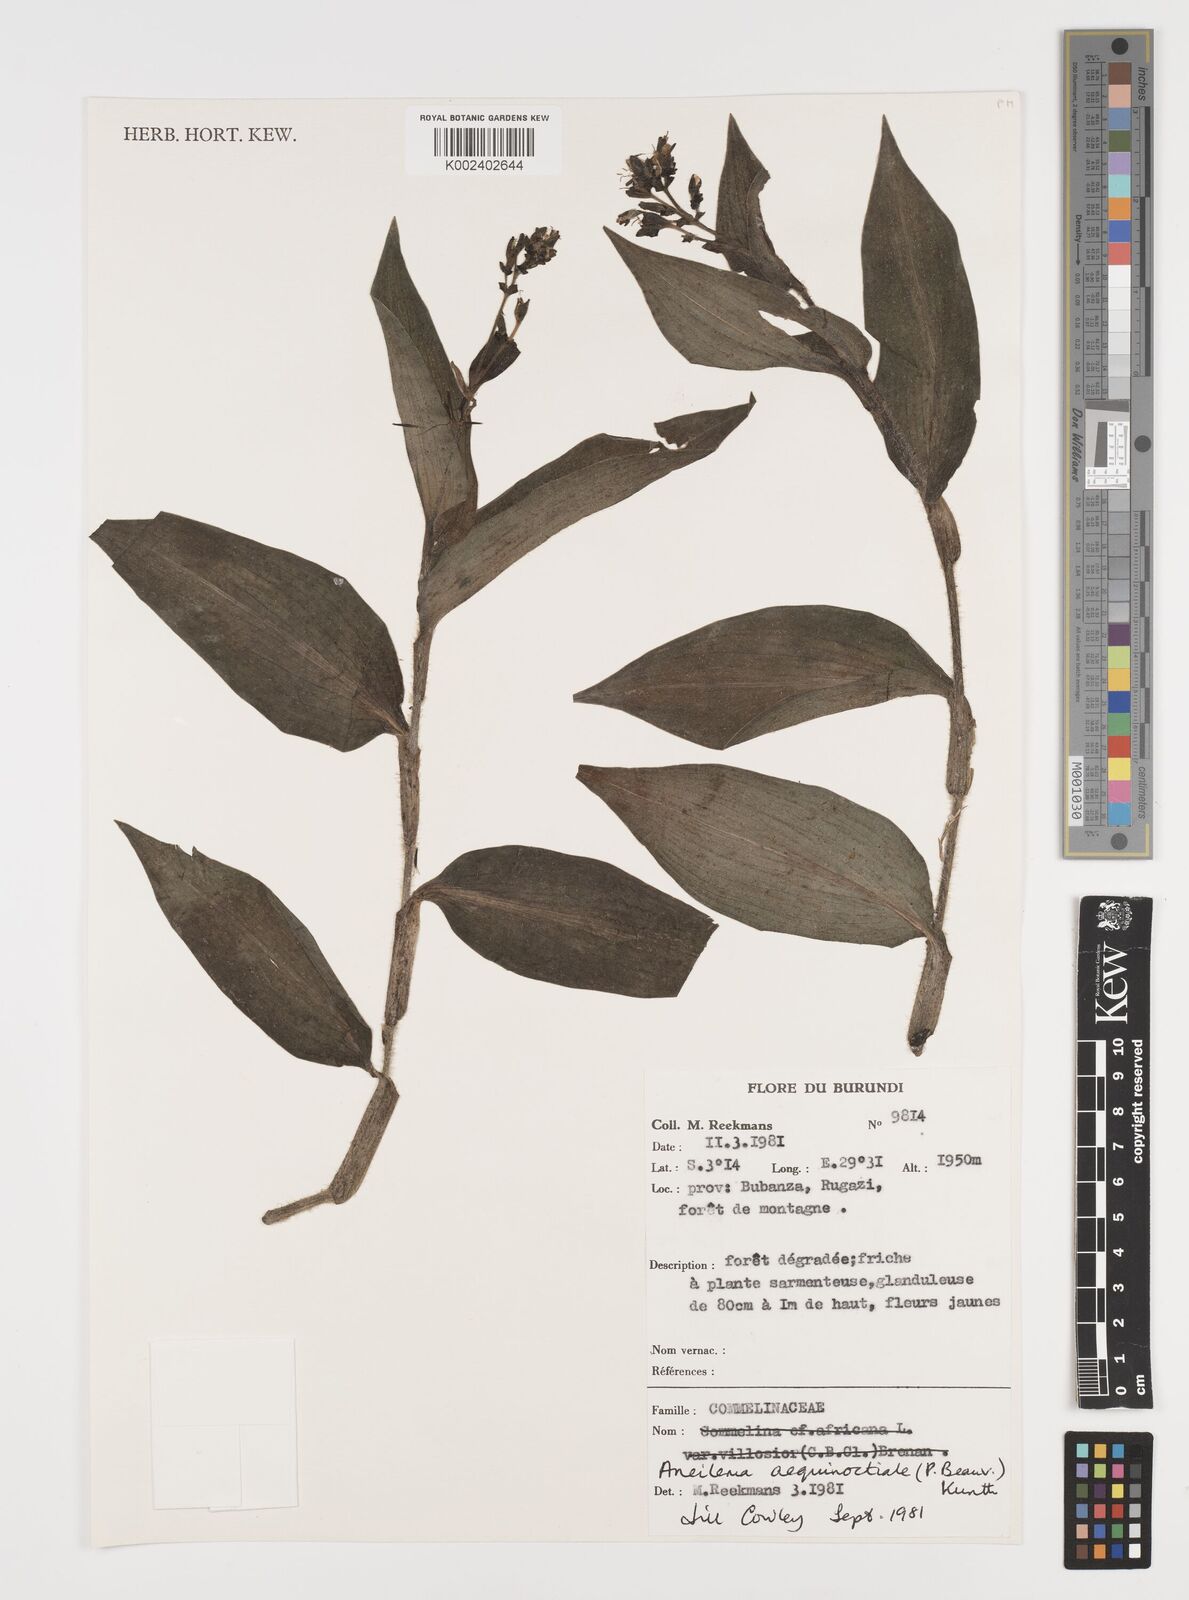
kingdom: Plantae
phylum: Tracheophyta
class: Liliopsida
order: Commelinales
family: Commelinaceae
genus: Aneilema
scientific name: Aneilema aequinoctiale
